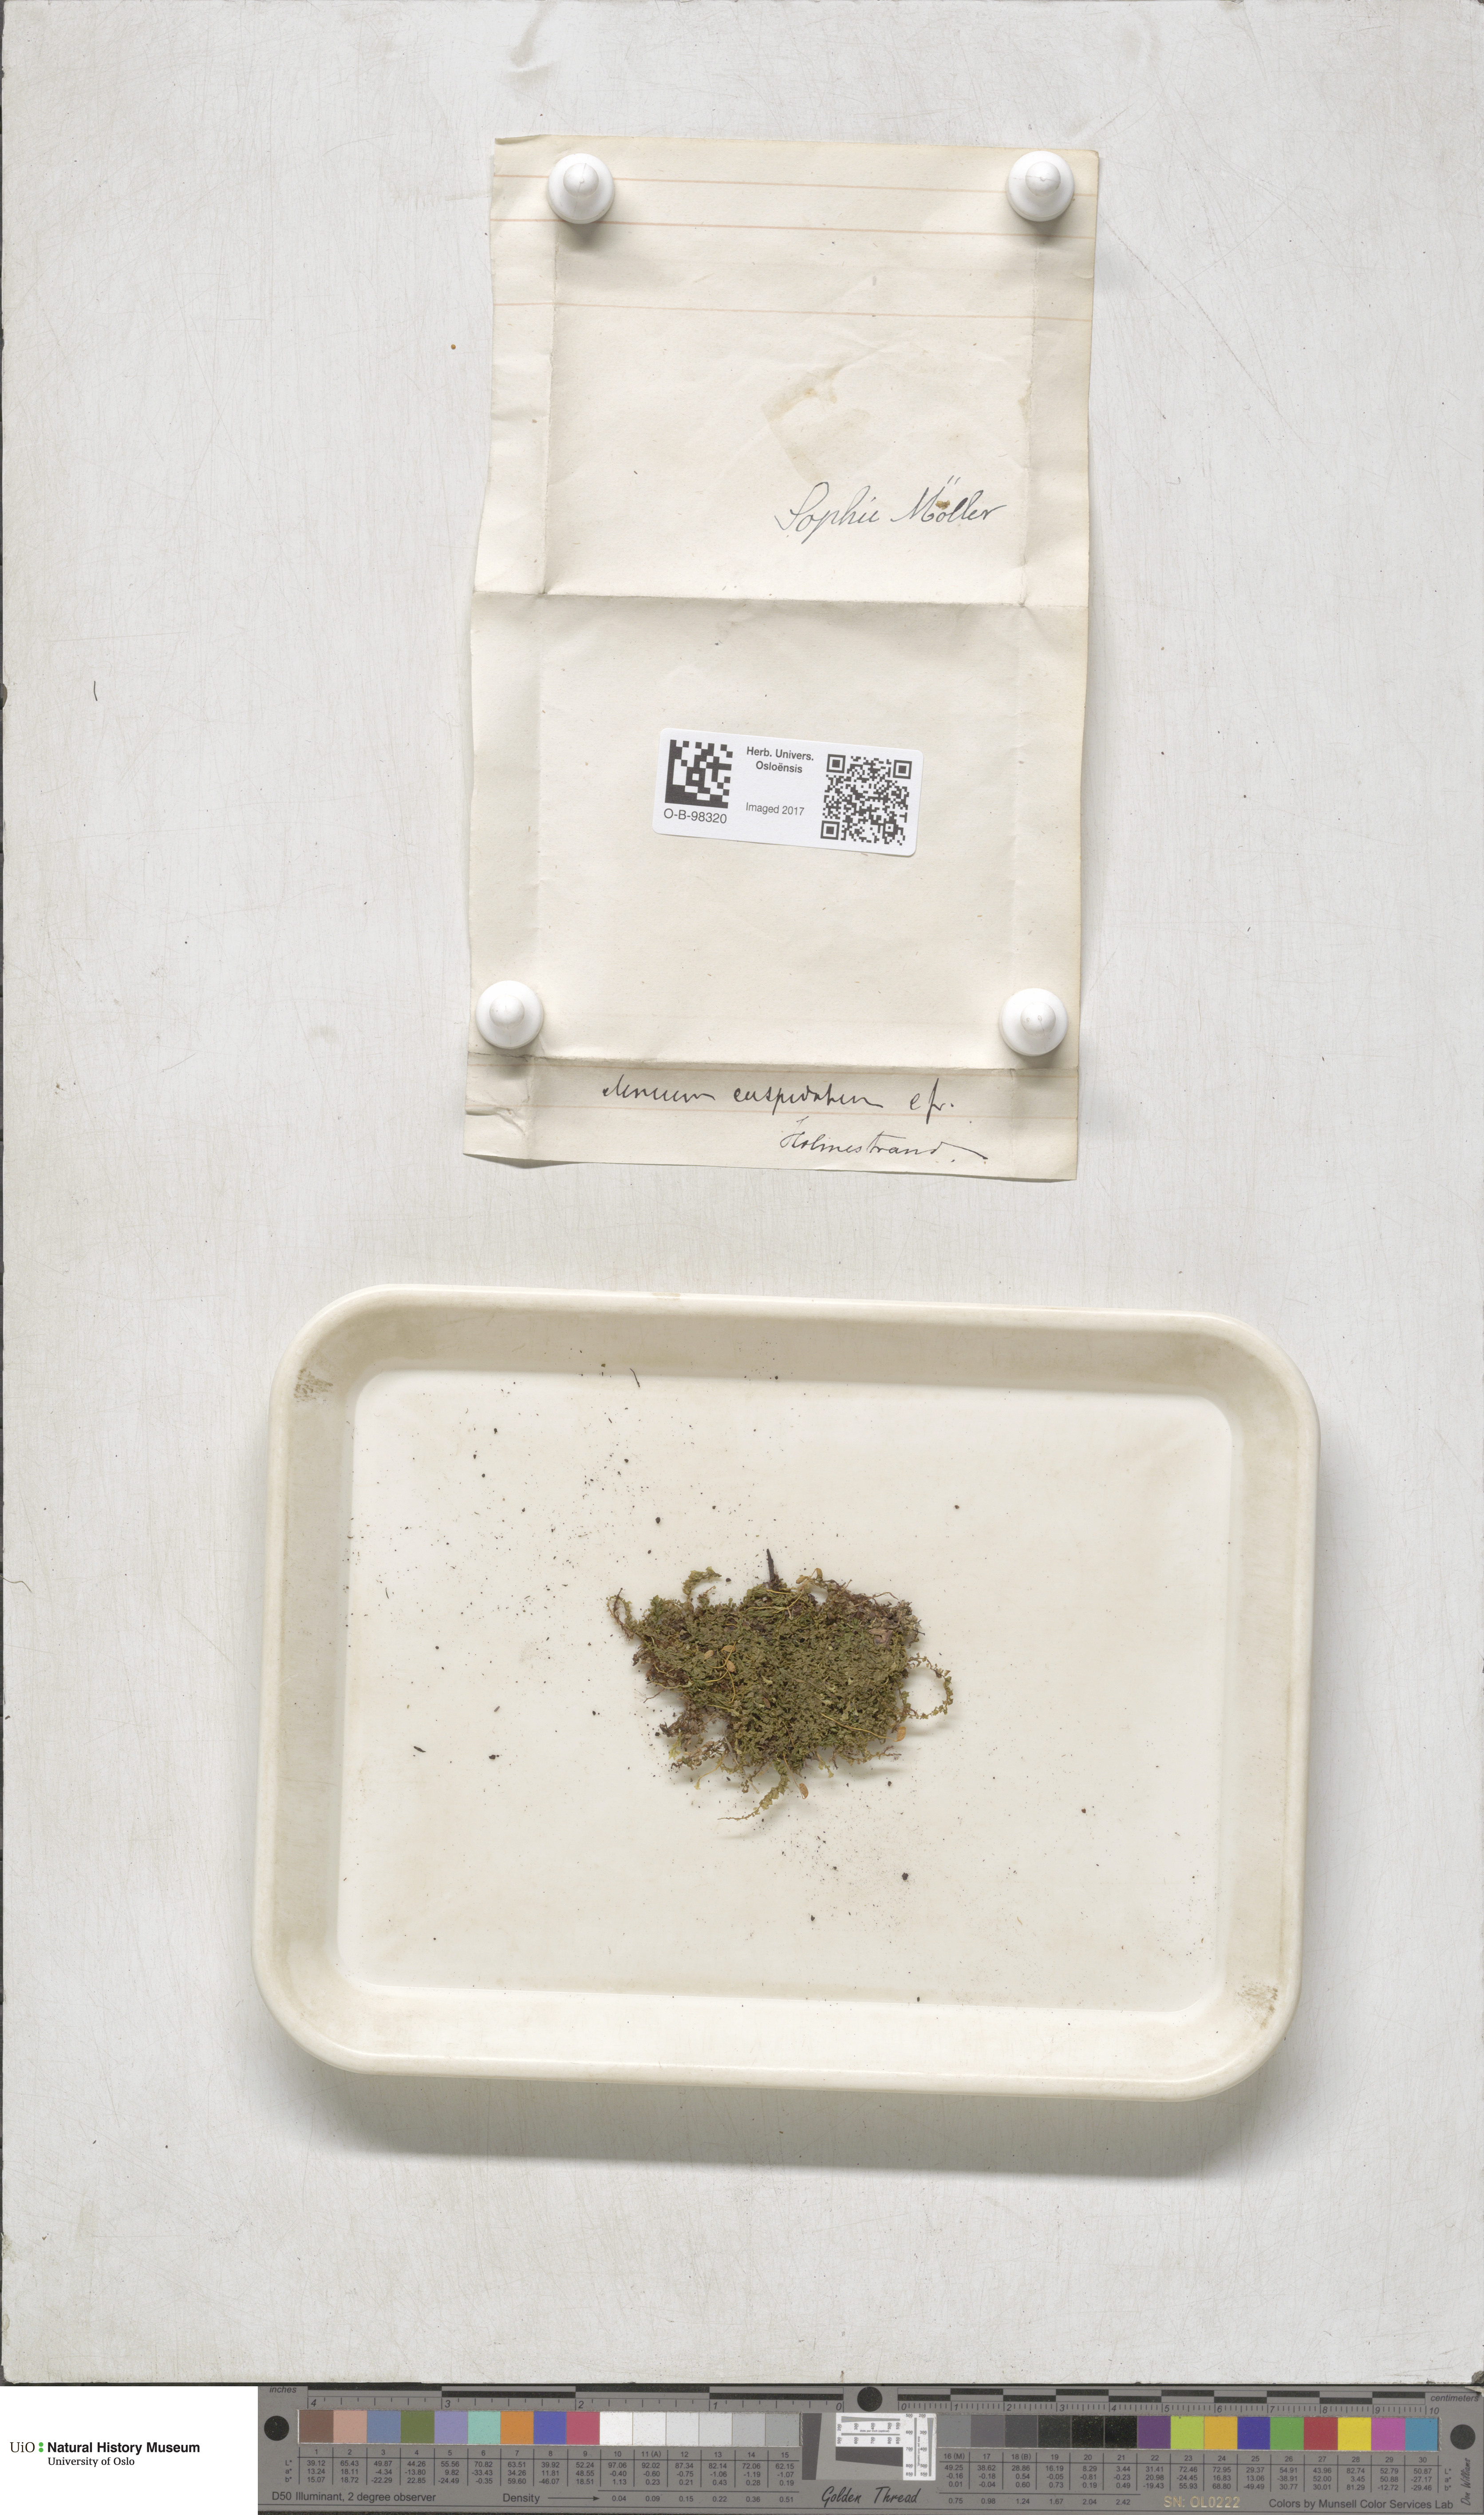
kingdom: Plantae
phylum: Bryophyta
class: Bryopsida
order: Bryales
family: Mniaceae
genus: Plagiomnium
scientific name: Plagiomnium cuspidatum
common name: Woodsy leafy moss
